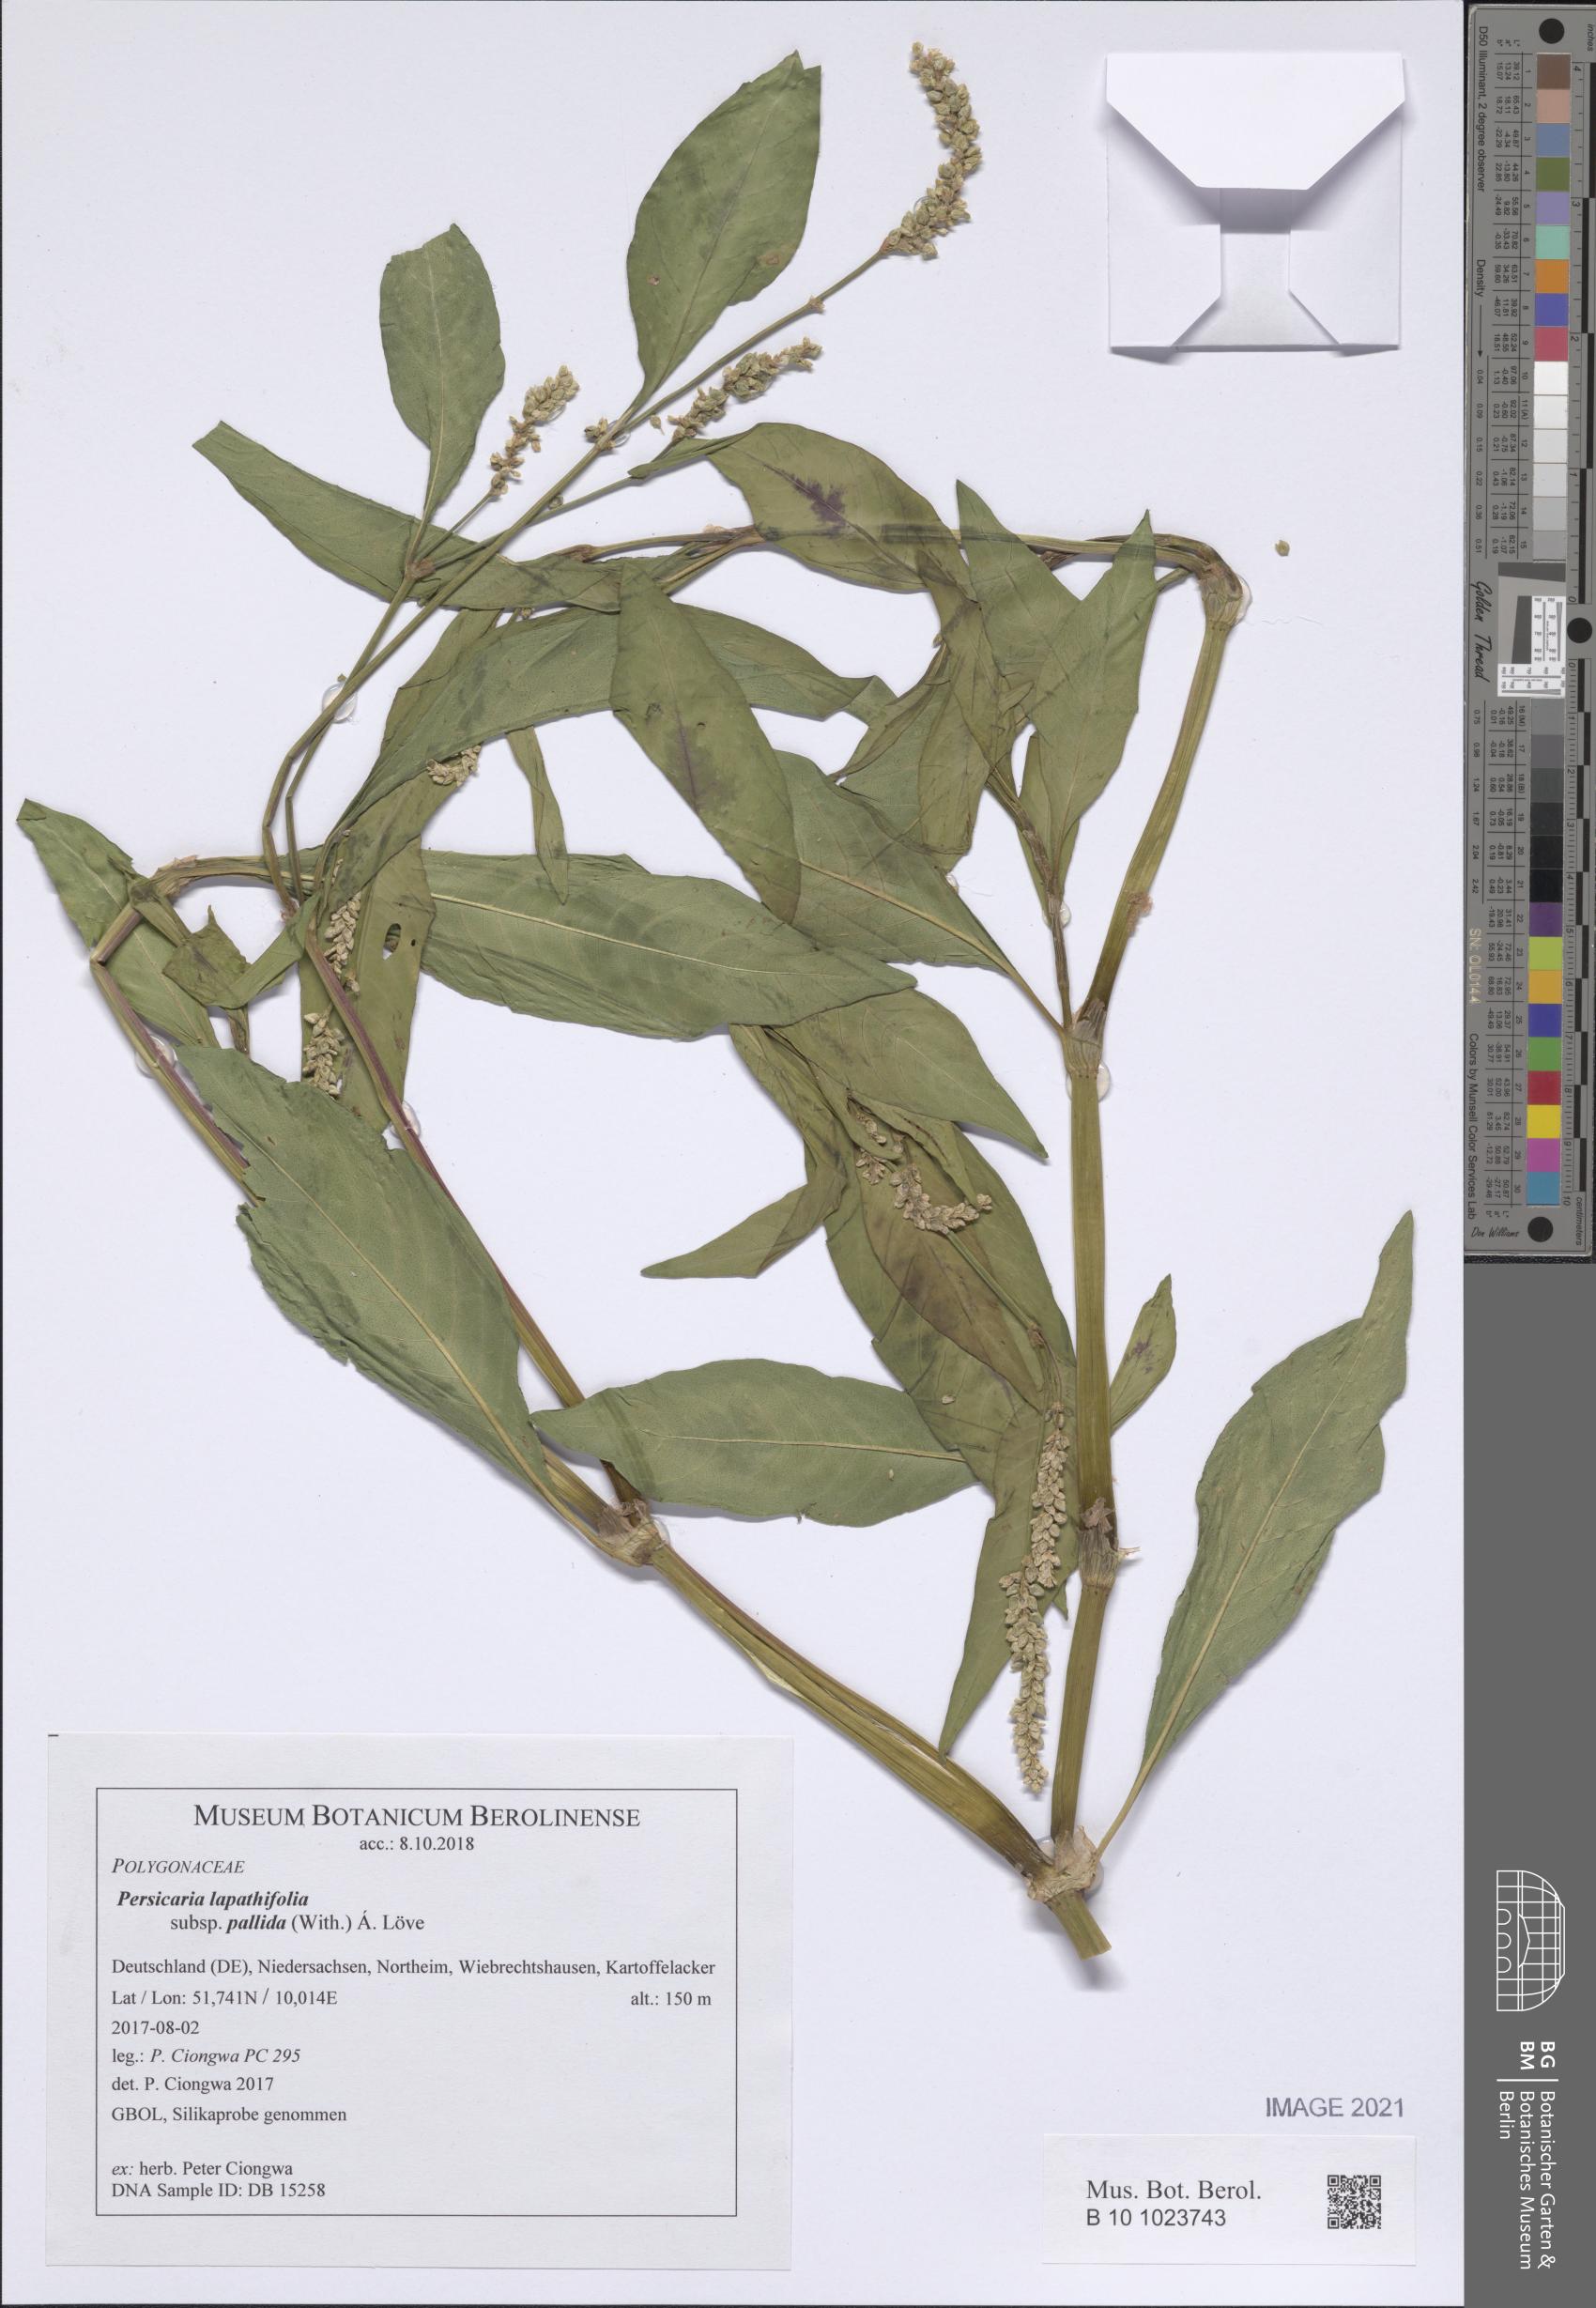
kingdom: Plantae
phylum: Tracheophyta
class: Magnoliopsida
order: Caryophyllales
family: Polygonaceae
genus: Persicaria
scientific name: Persicaria lapathifolia
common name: Curlytop knotweed
